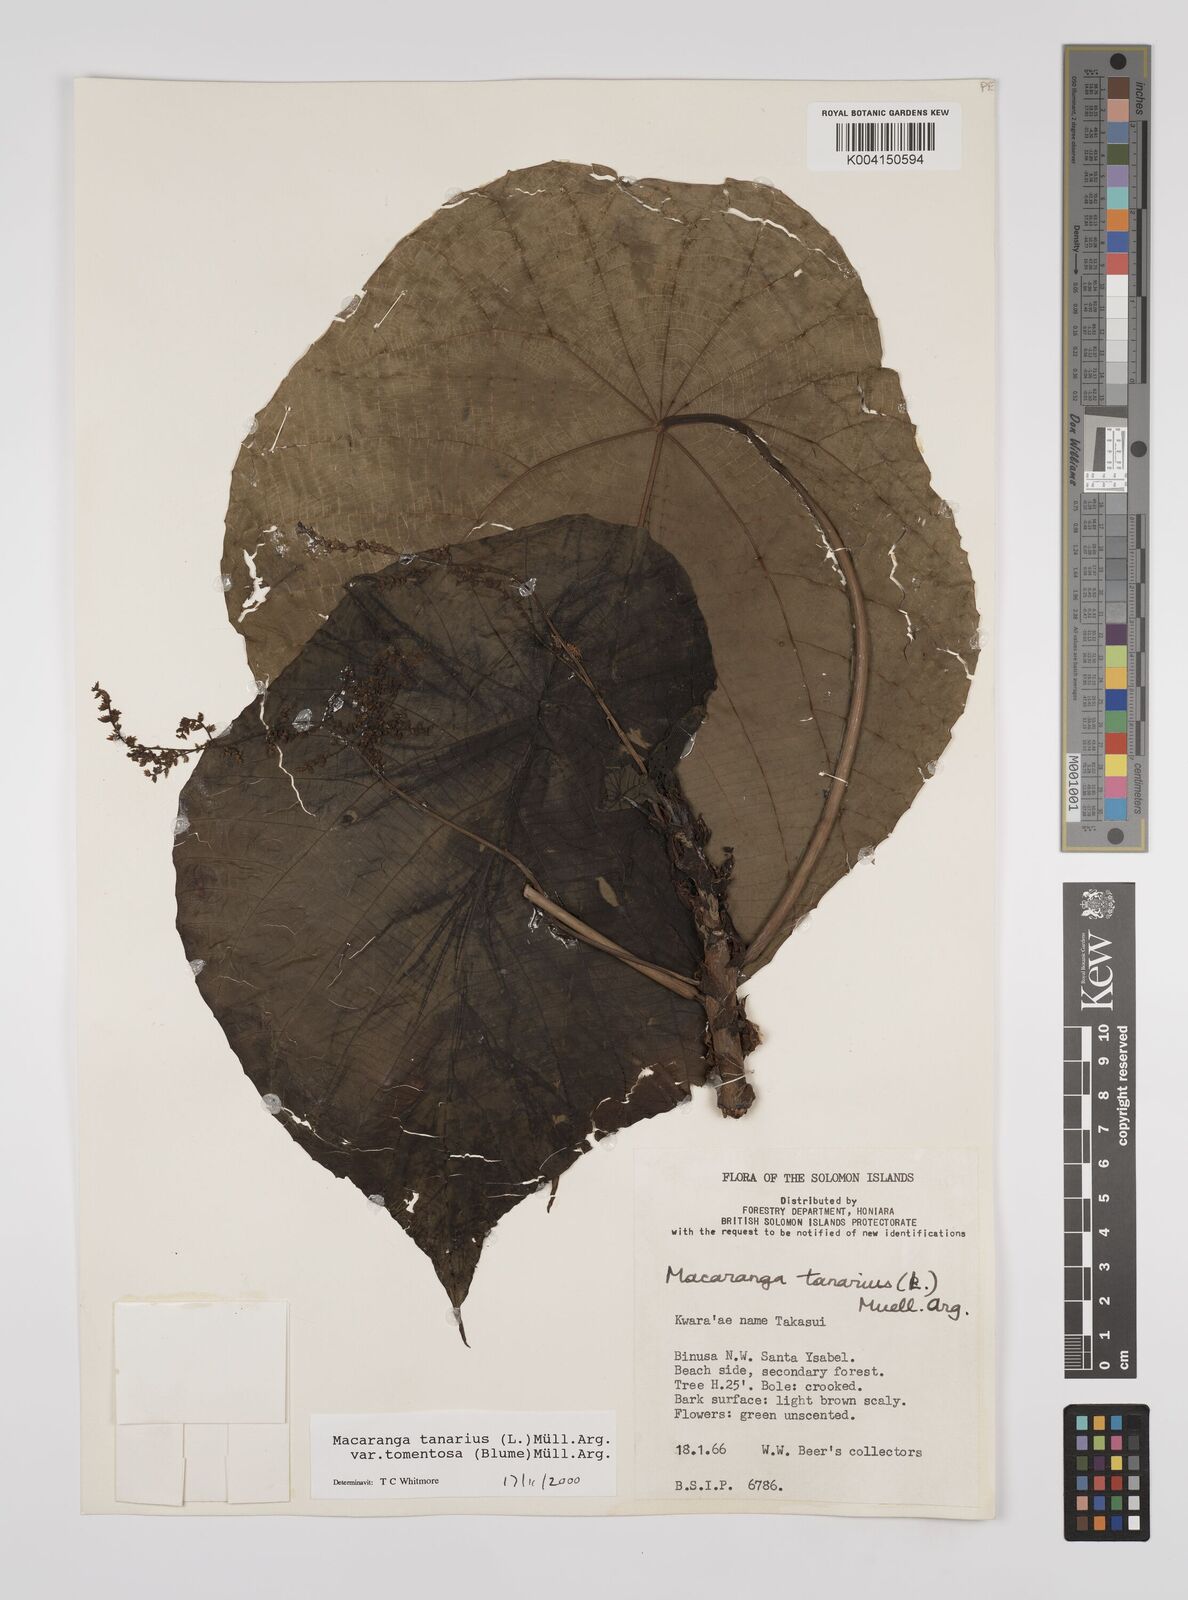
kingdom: Plantae
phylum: Tracheophyta
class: Magnoliopsida
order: Malpighiales
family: Euphorbiaceae
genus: Macaranga
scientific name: Macaranga tanarius
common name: Parasol leaf tree
